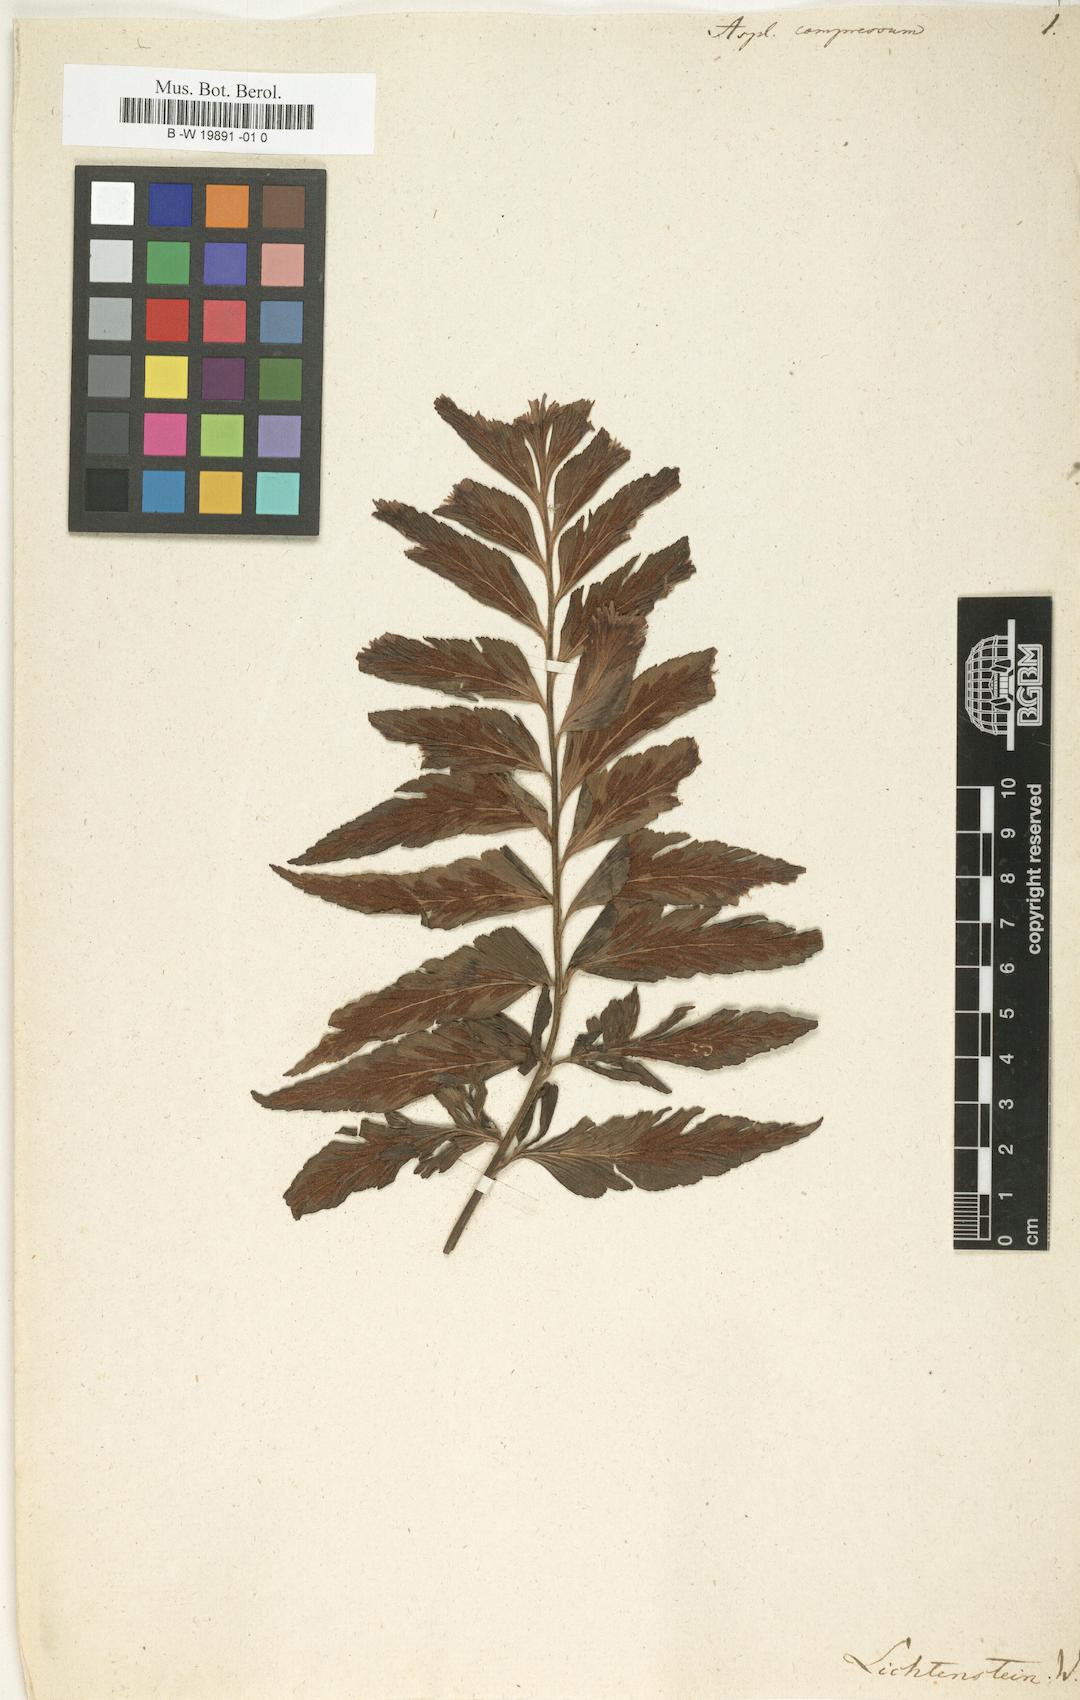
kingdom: Plantae
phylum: Tracheophyta
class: Polypodiopsida
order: Polypodiales
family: Aspleniaceae
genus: Asplenium
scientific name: Asplenium compressum
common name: Hen and chicks fern
